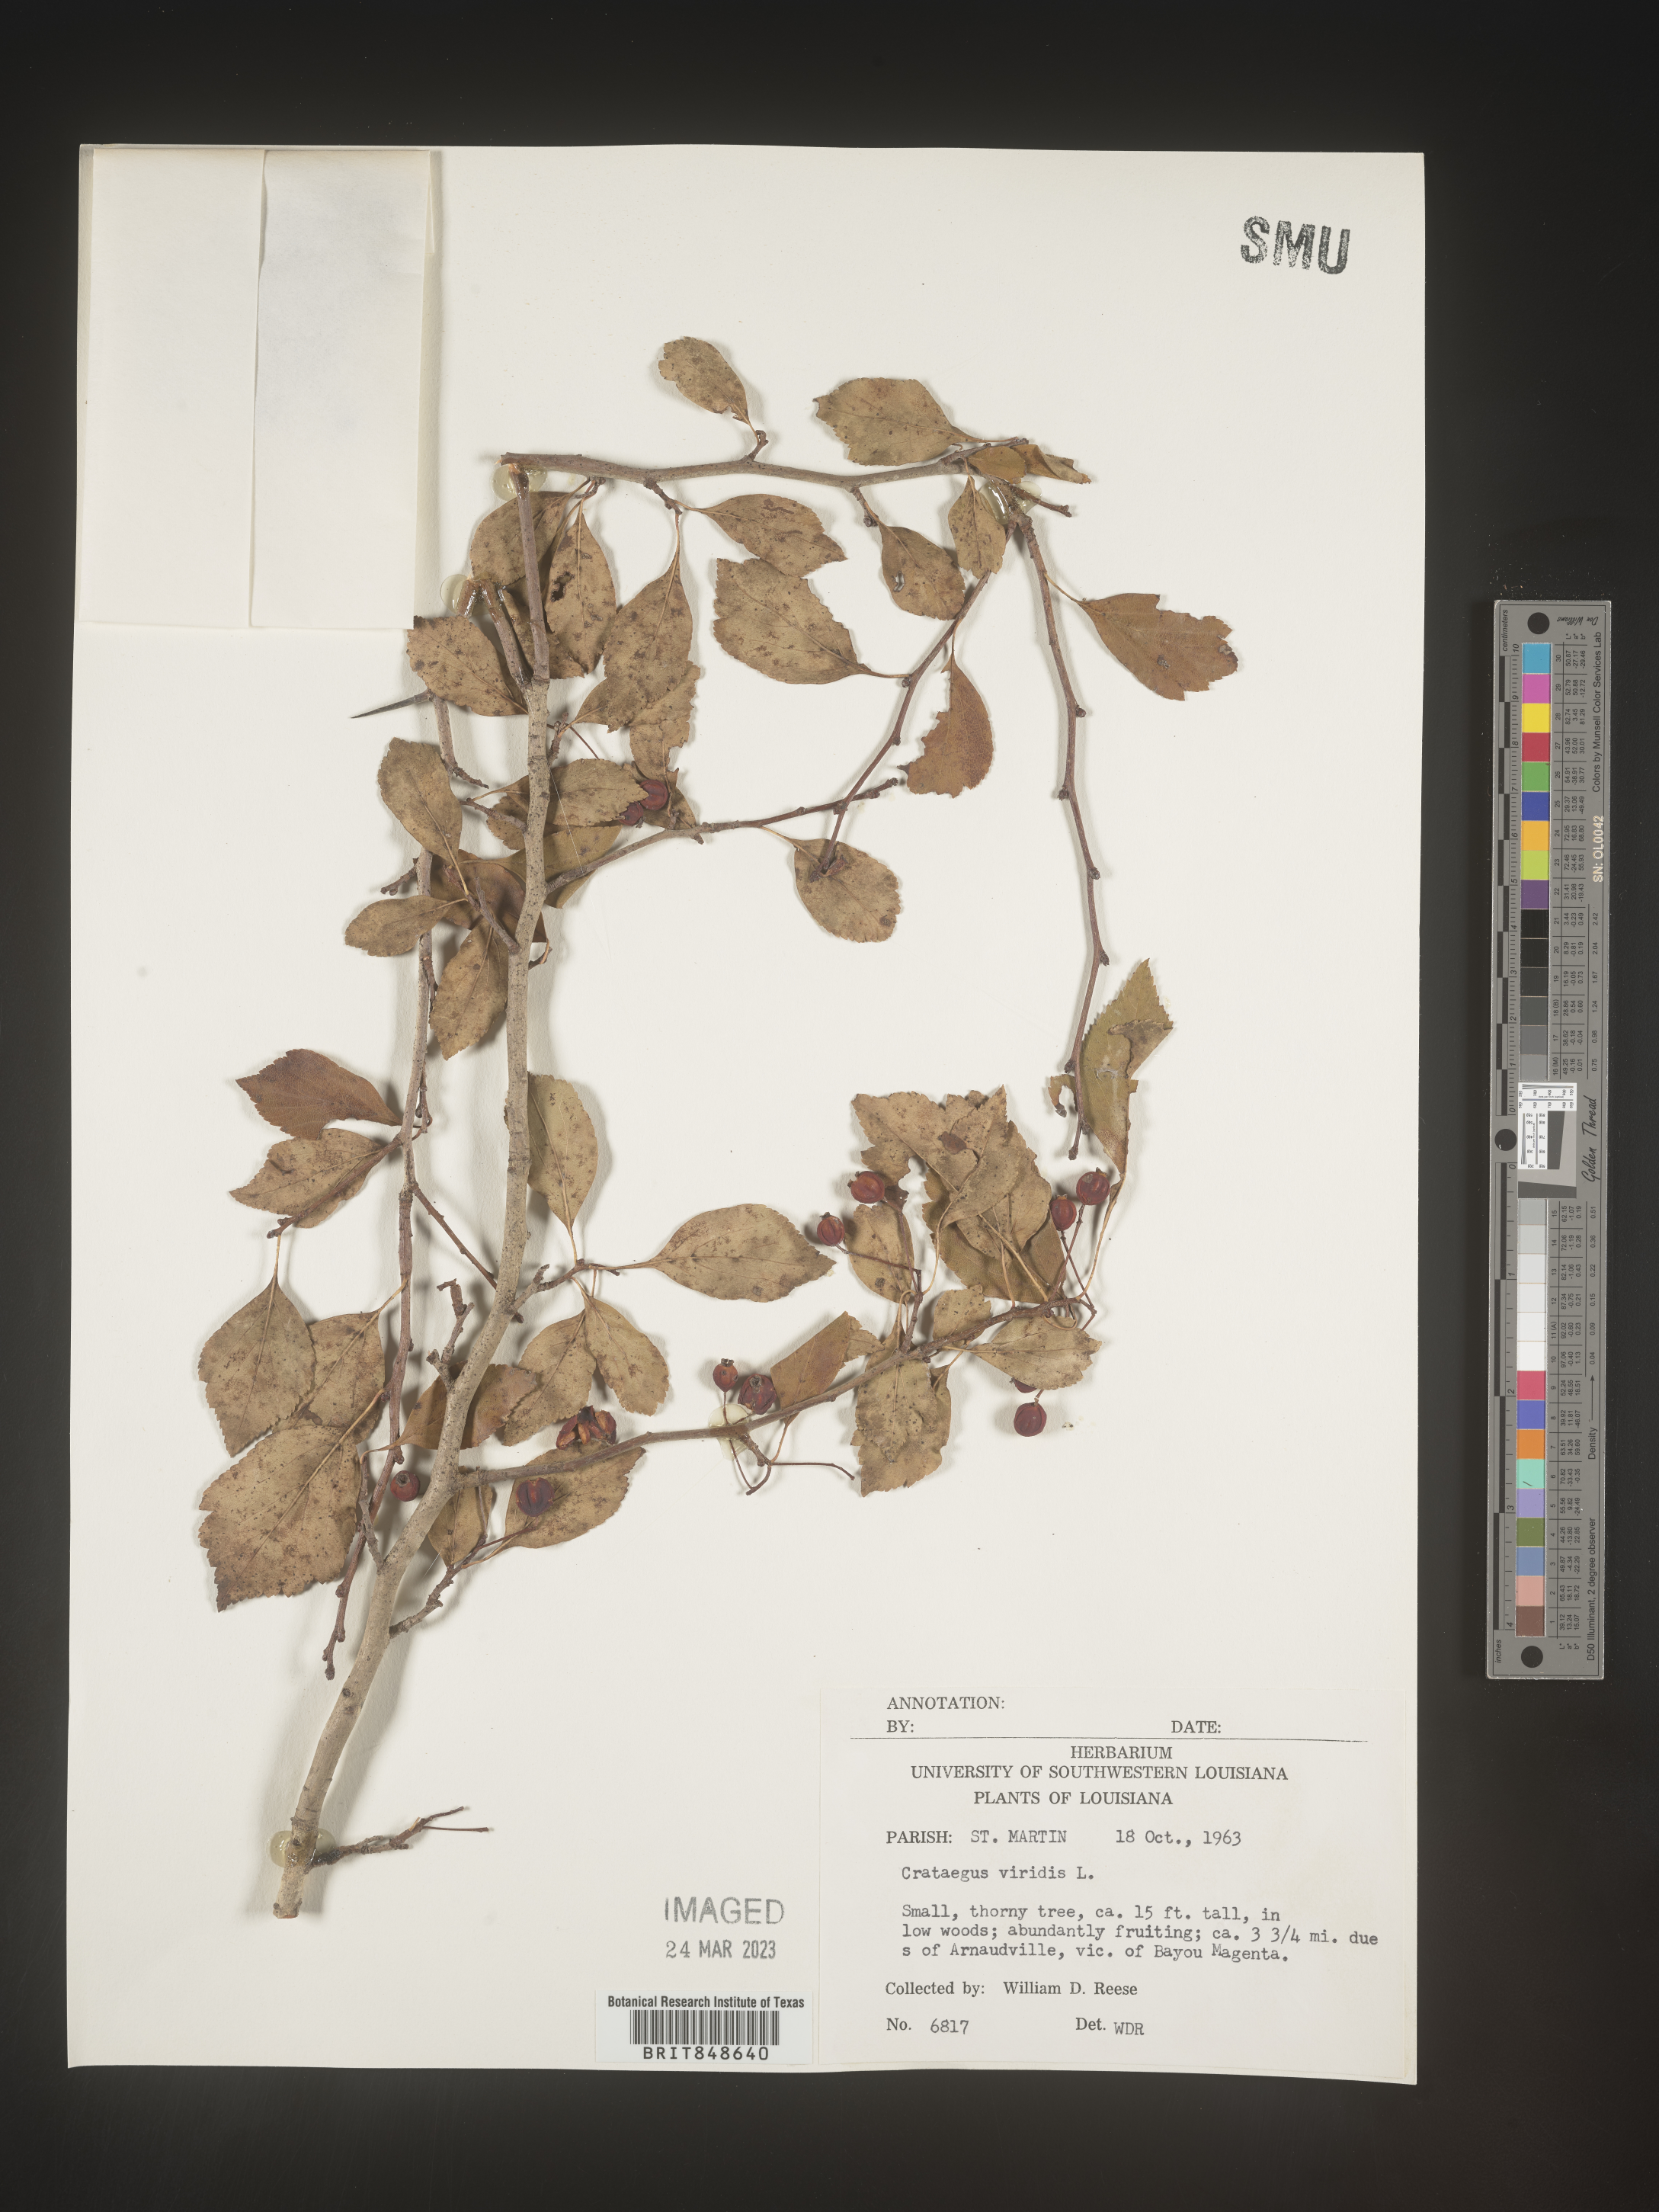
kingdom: Plantae
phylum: Tracheophyta
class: Magnoliopsida
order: Rosales
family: Rosaceae
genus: Crataegus
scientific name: Crataegus viridis
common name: Southernthorn
